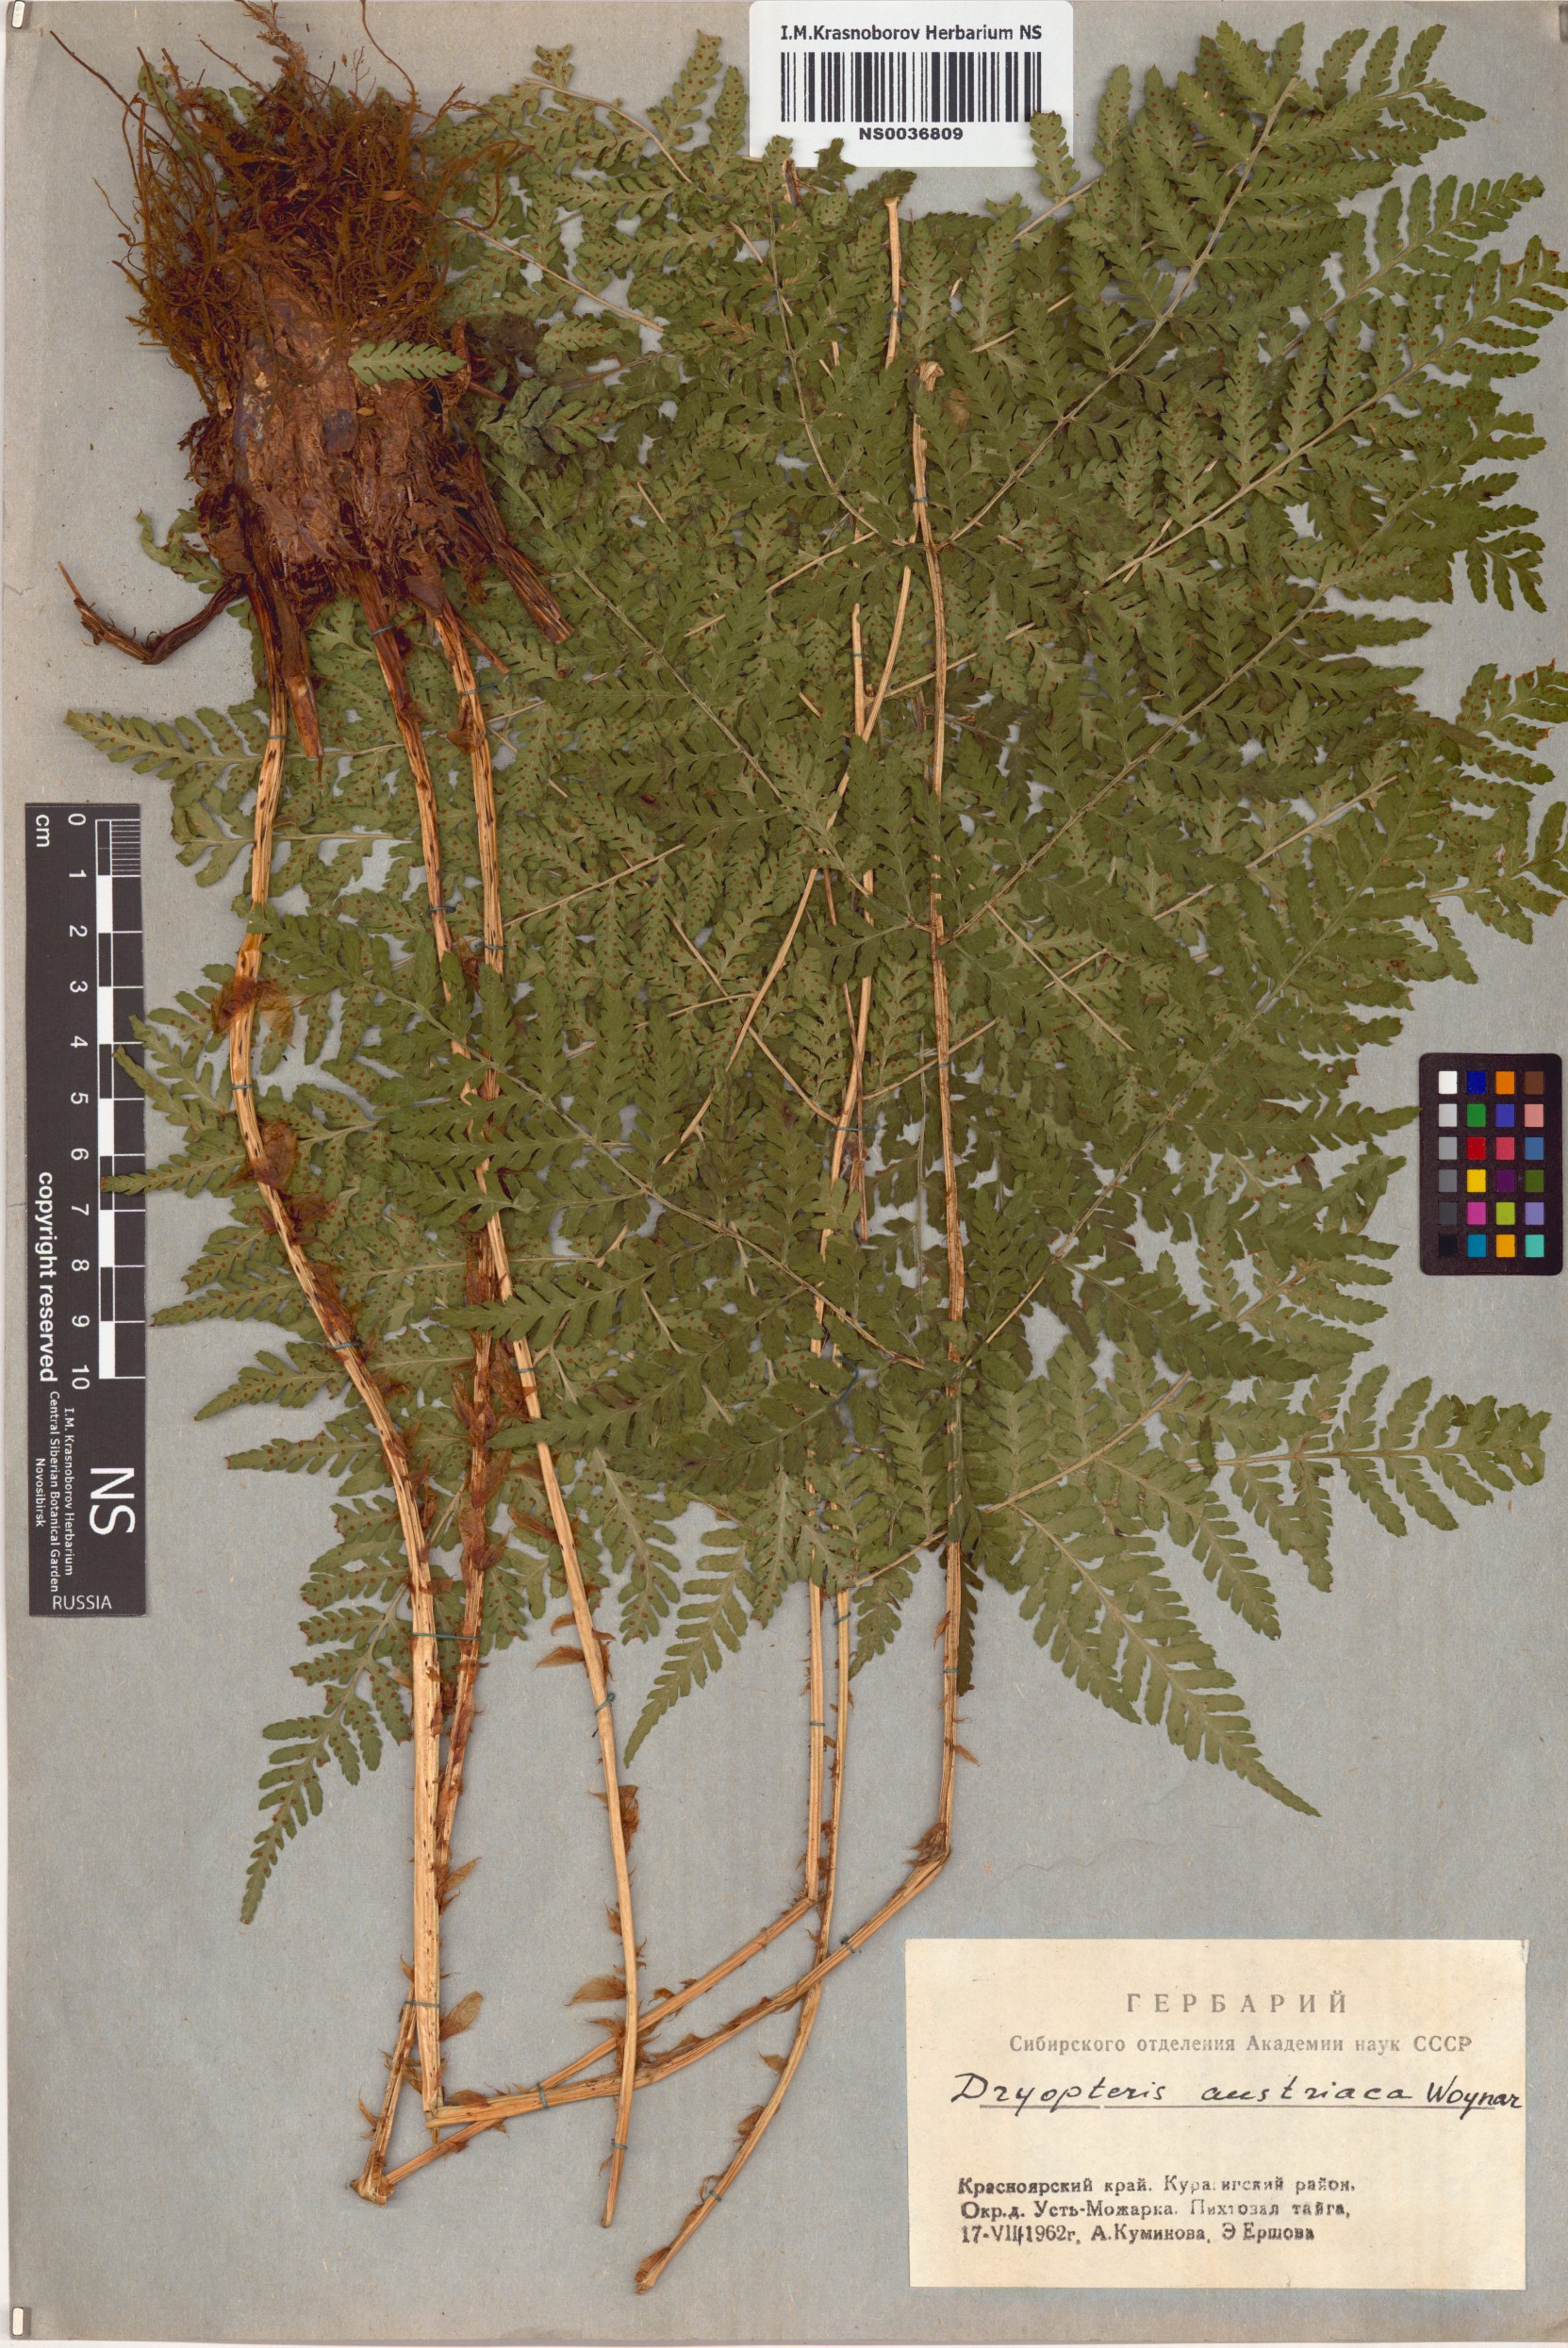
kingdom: Plantae
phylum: Tracheophyta
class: Polypodiopsida
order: Polypodiales
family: Dryopteridaceae
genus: Dryopteris
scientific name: Dryopteris dilatata
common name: Broad buckler-fern
